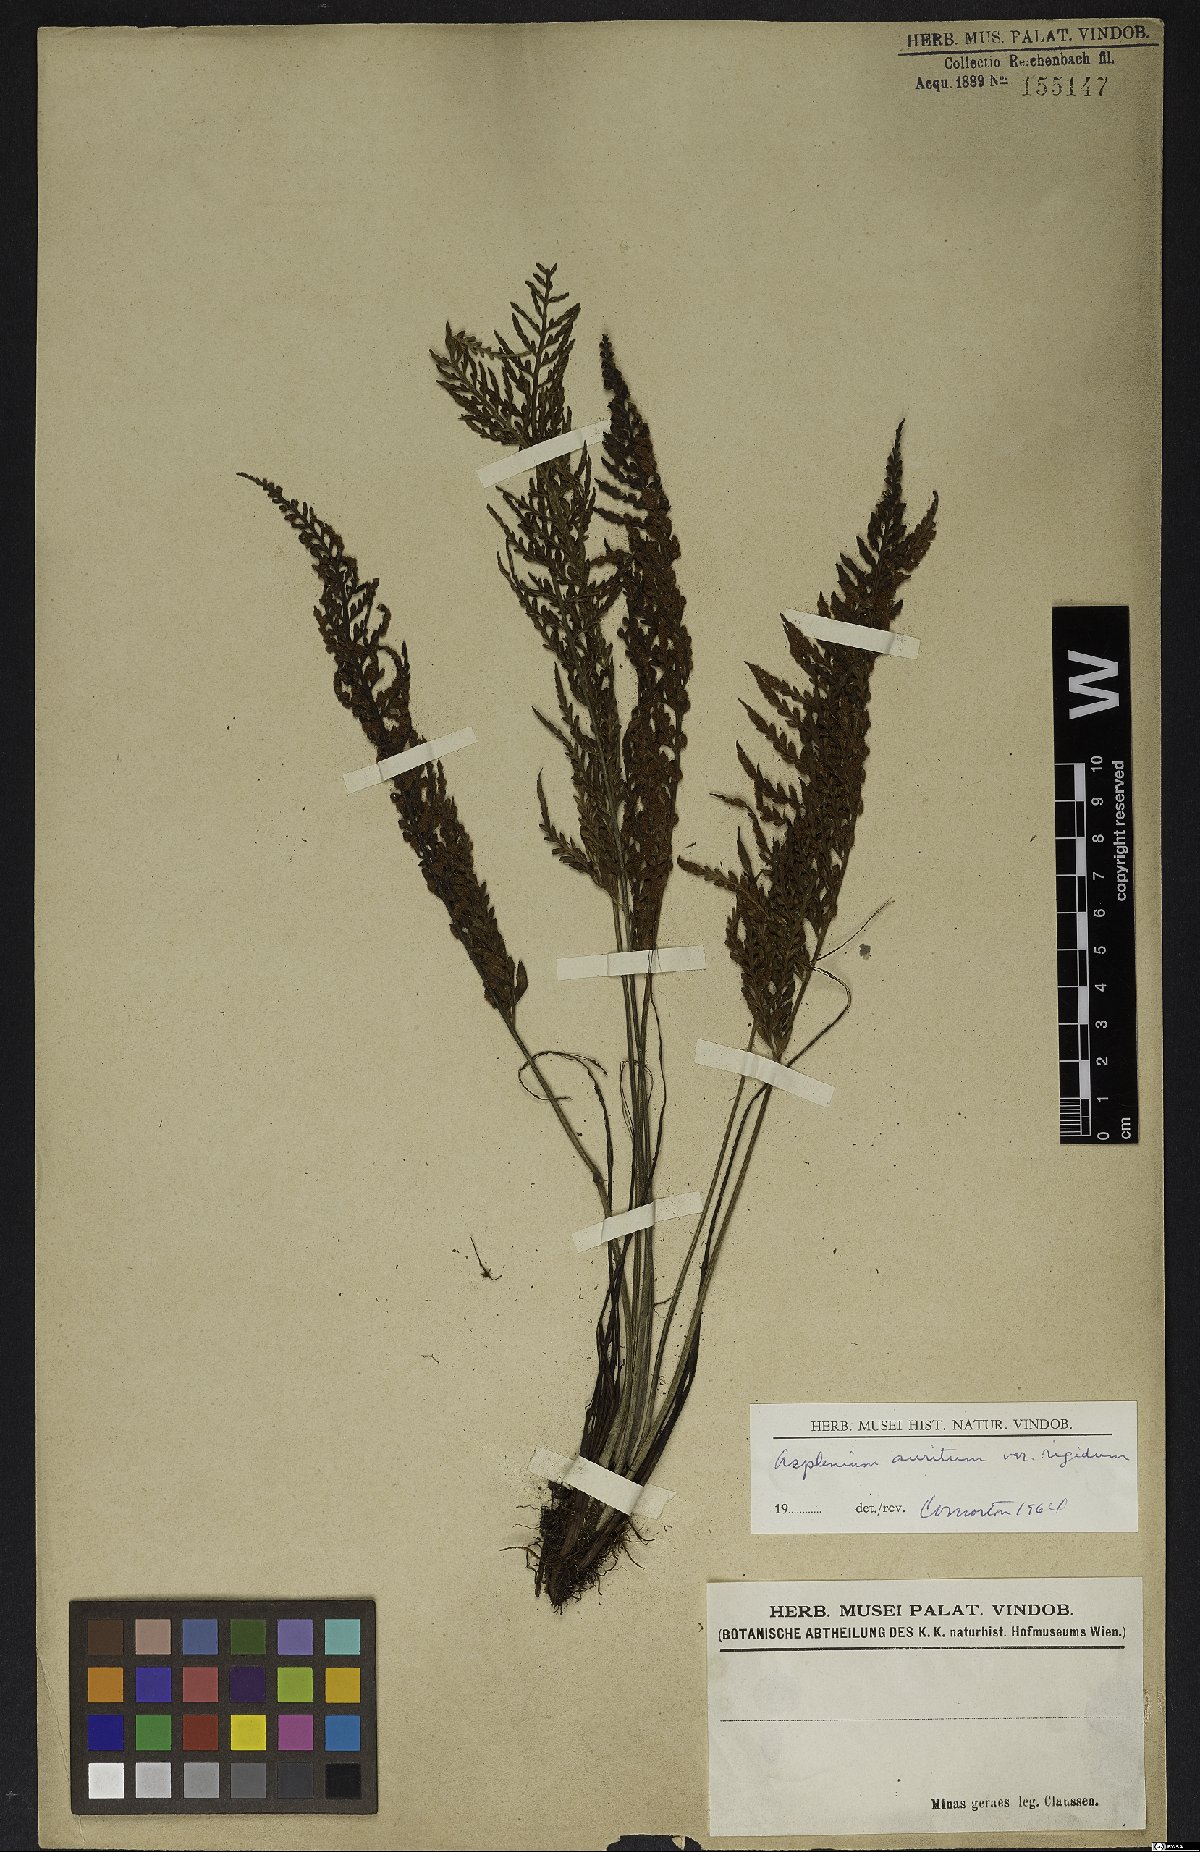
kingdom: Plantae
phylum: Tracheophyta
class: Polypodiopsida
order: Polypodiales
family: Aspleniaceae
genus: Asplenium
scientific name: Asplenium auritum
